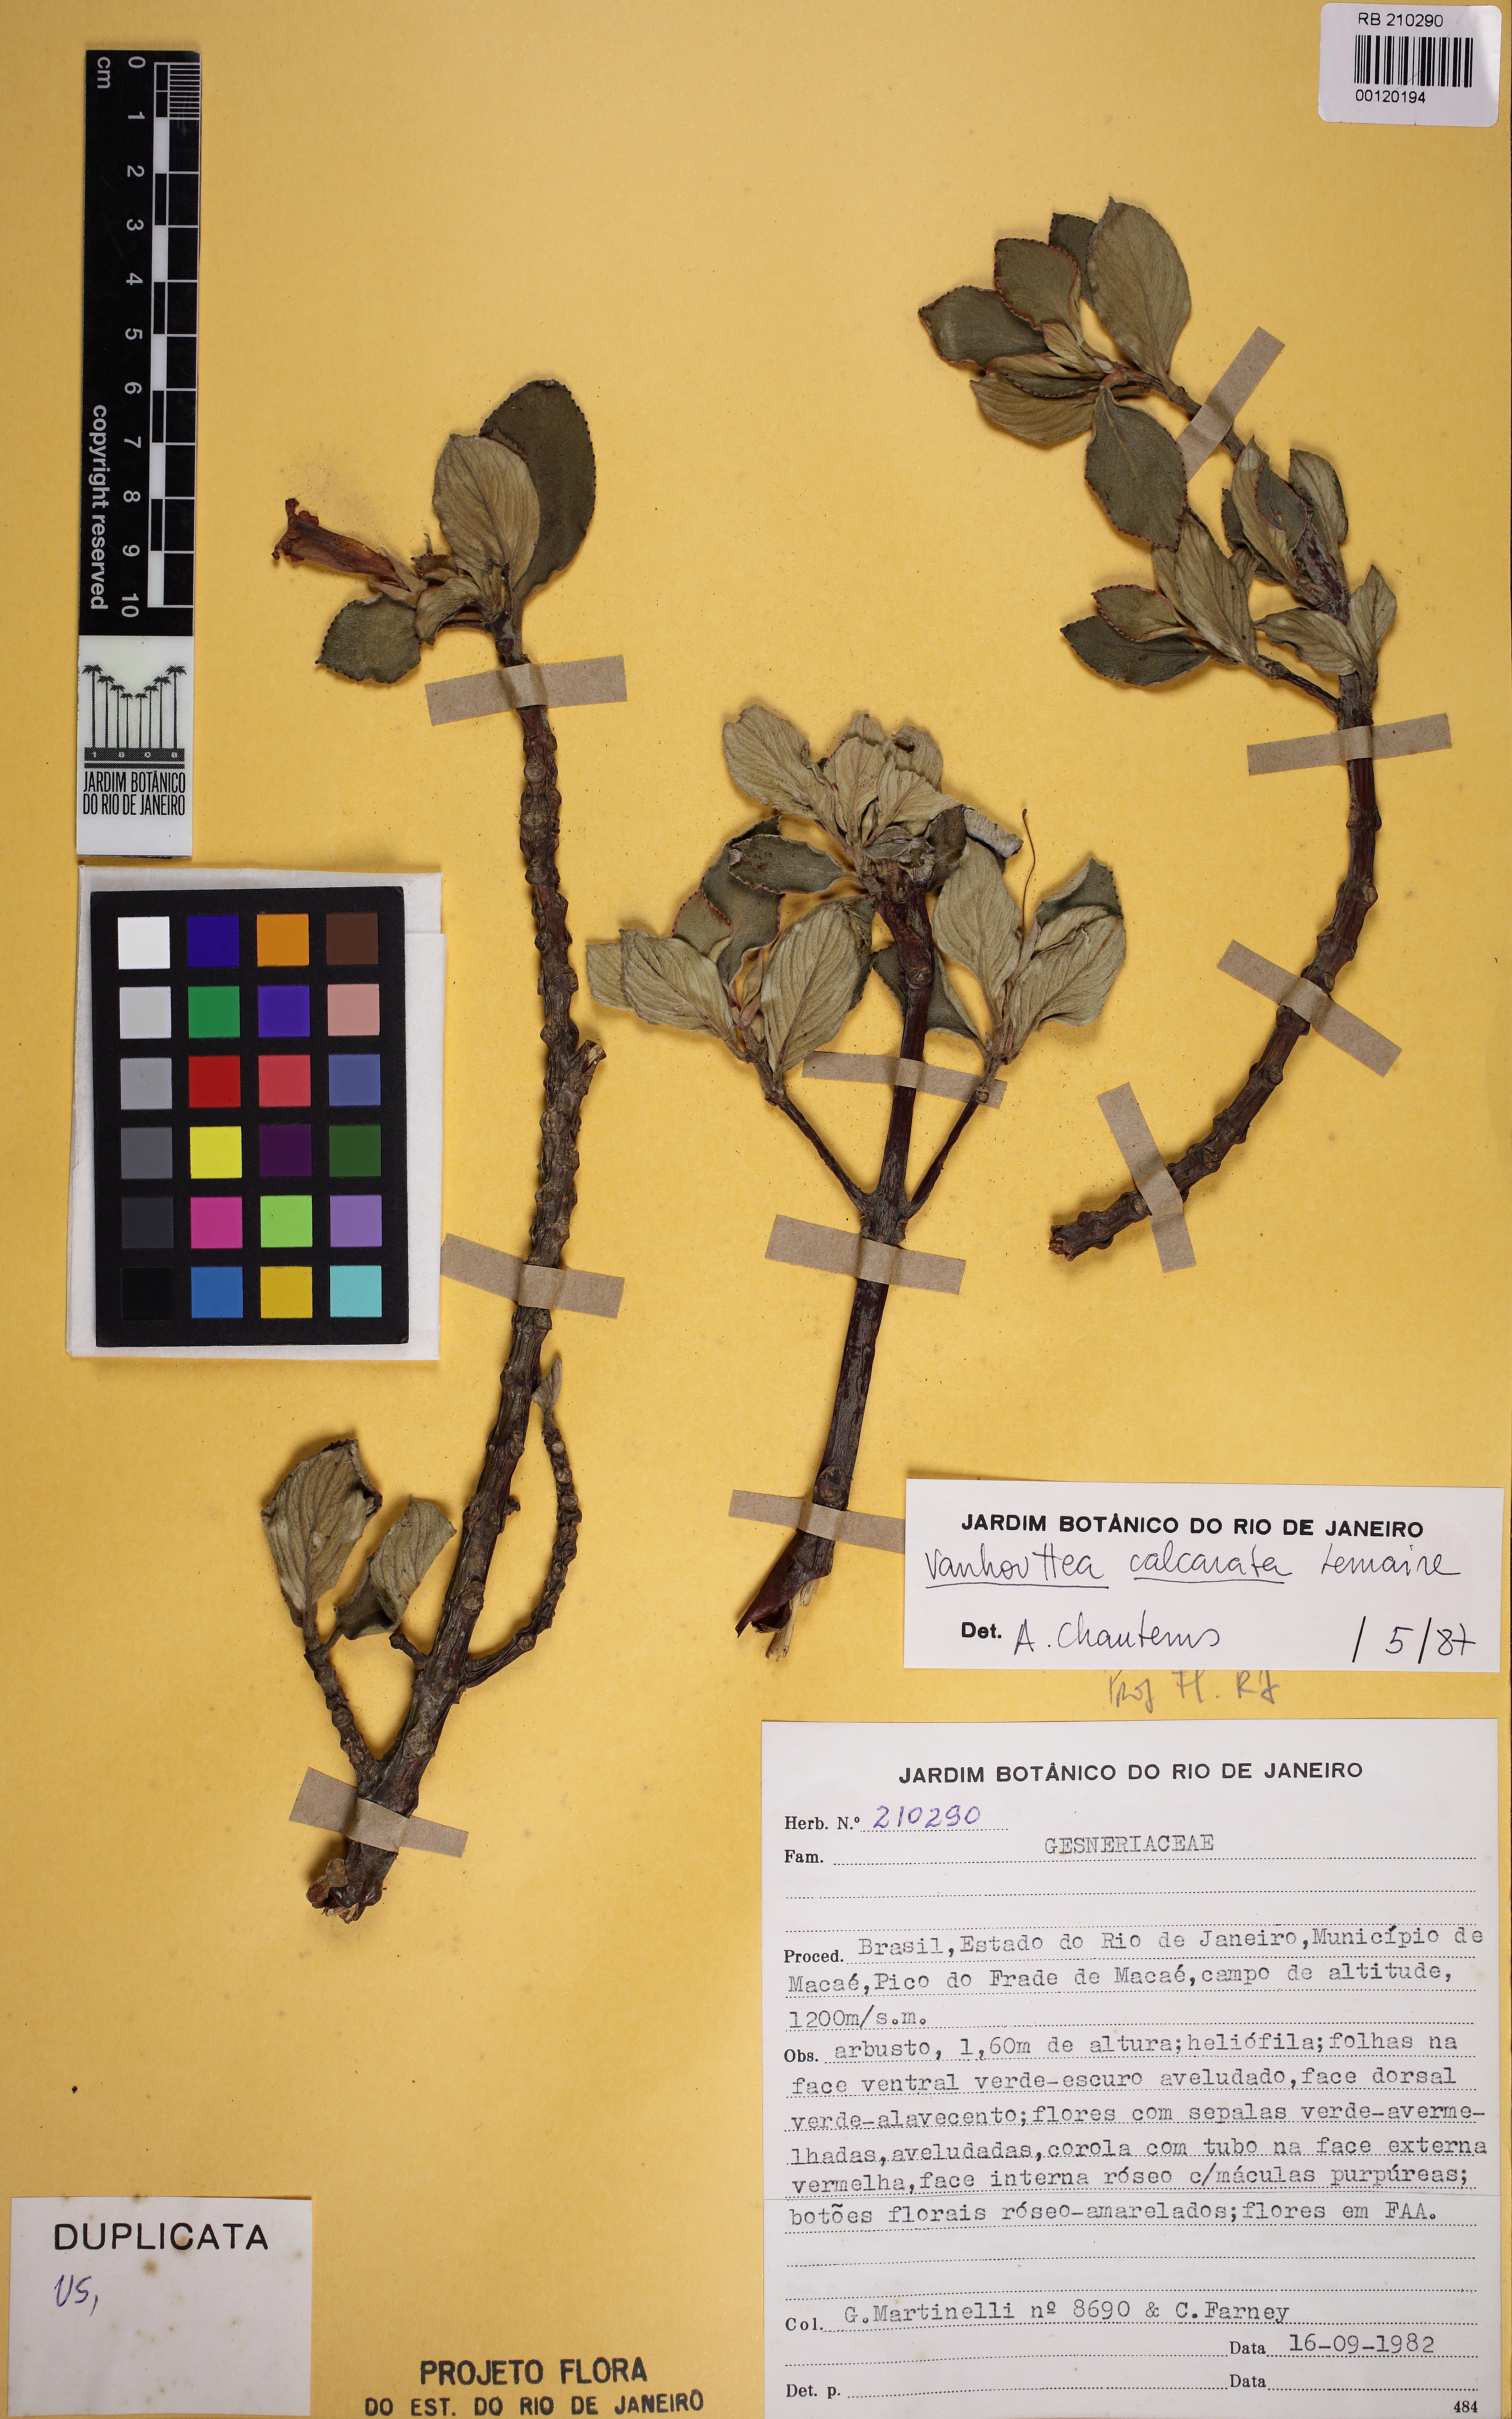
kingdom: Plantae
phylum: Tracheophyta
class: Magnoliopsida
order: Lamiales
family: Gesneriaceae
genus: Vanhouttea
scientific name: Vanhouttea calcarata
